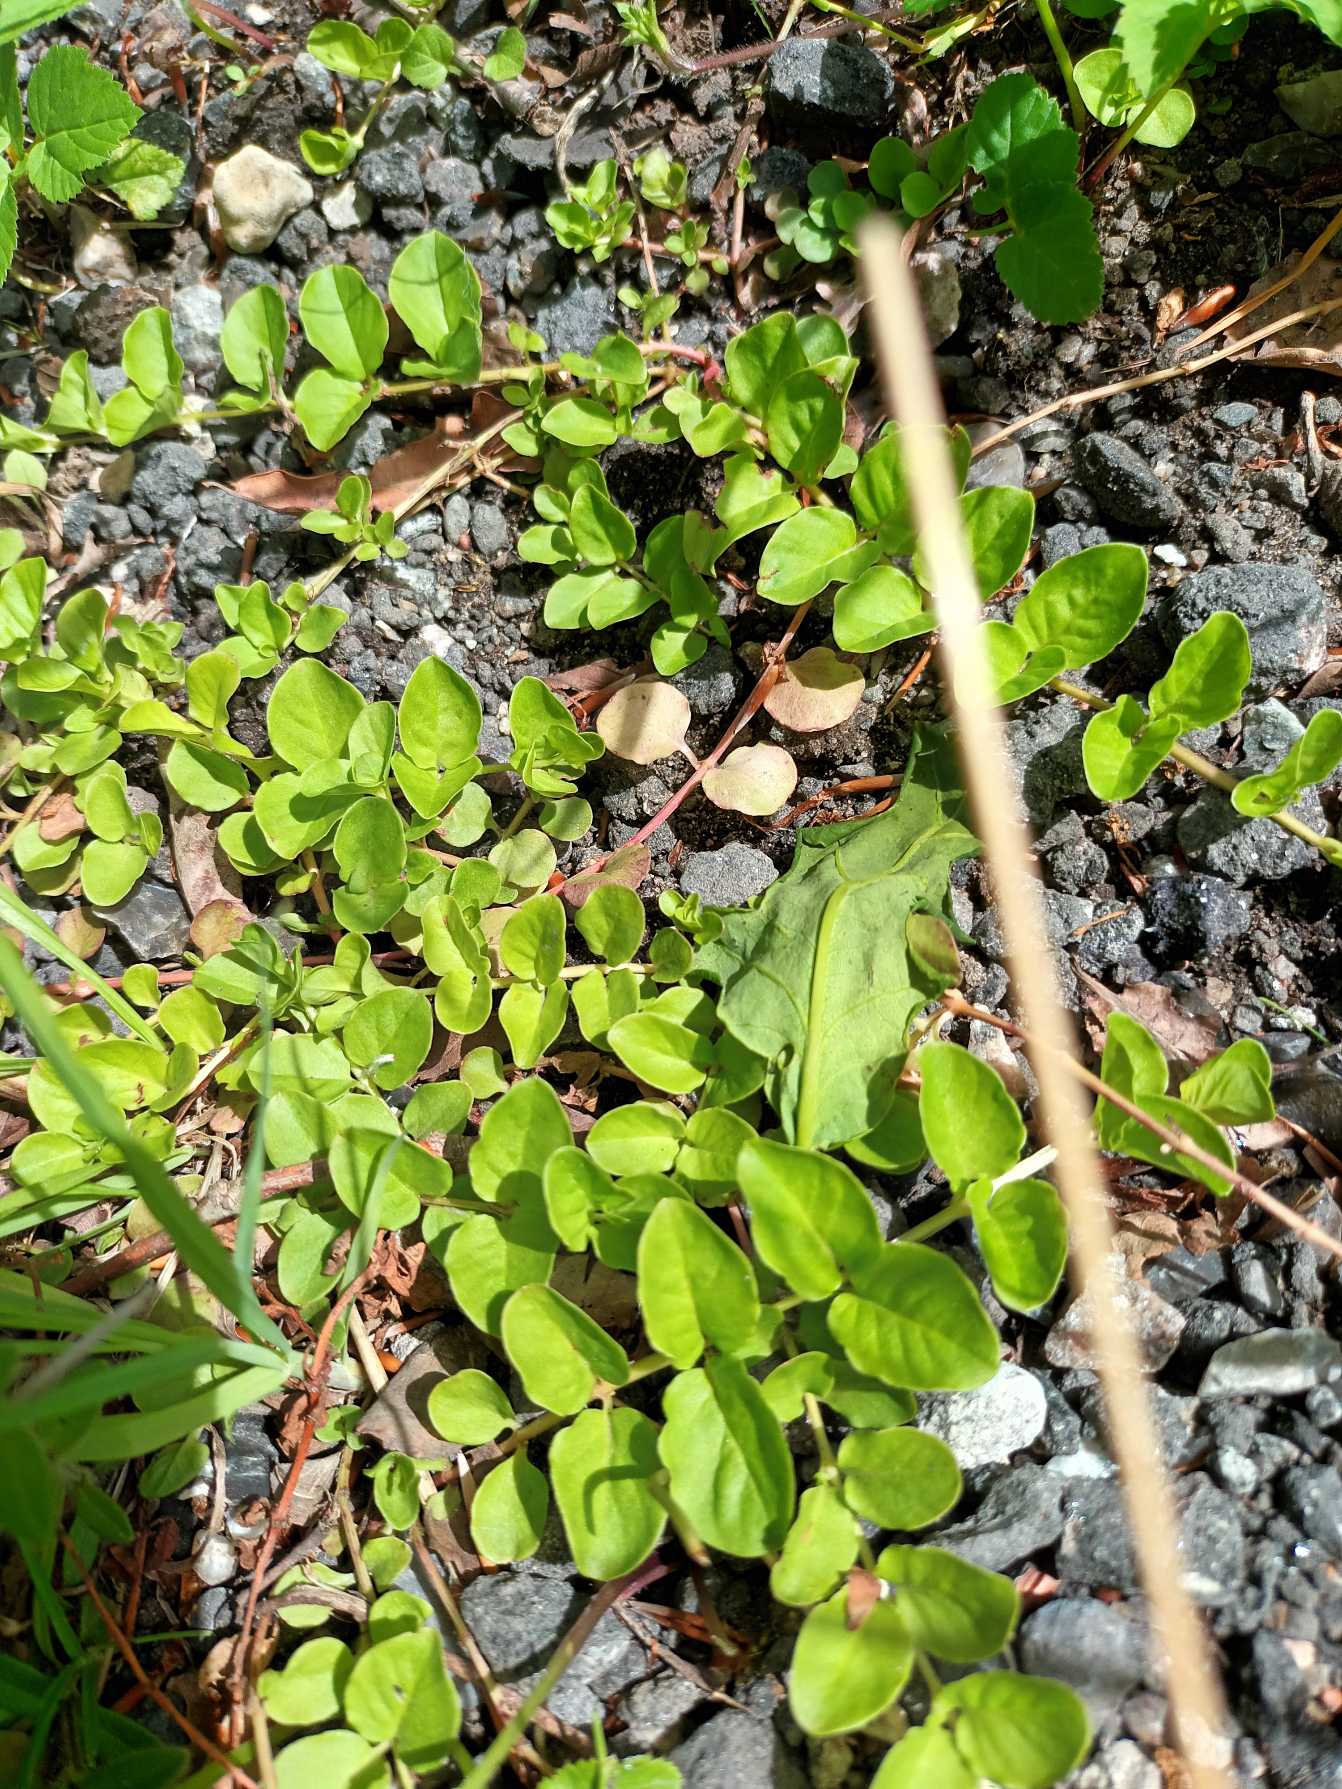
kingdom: Plantae
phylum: Tracheophyta
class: Magnoliopsida
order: Ericales
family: Primulaceae
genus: Lysimachia
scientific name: Lysimachia nummularia
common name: Pengebladet fredløs
